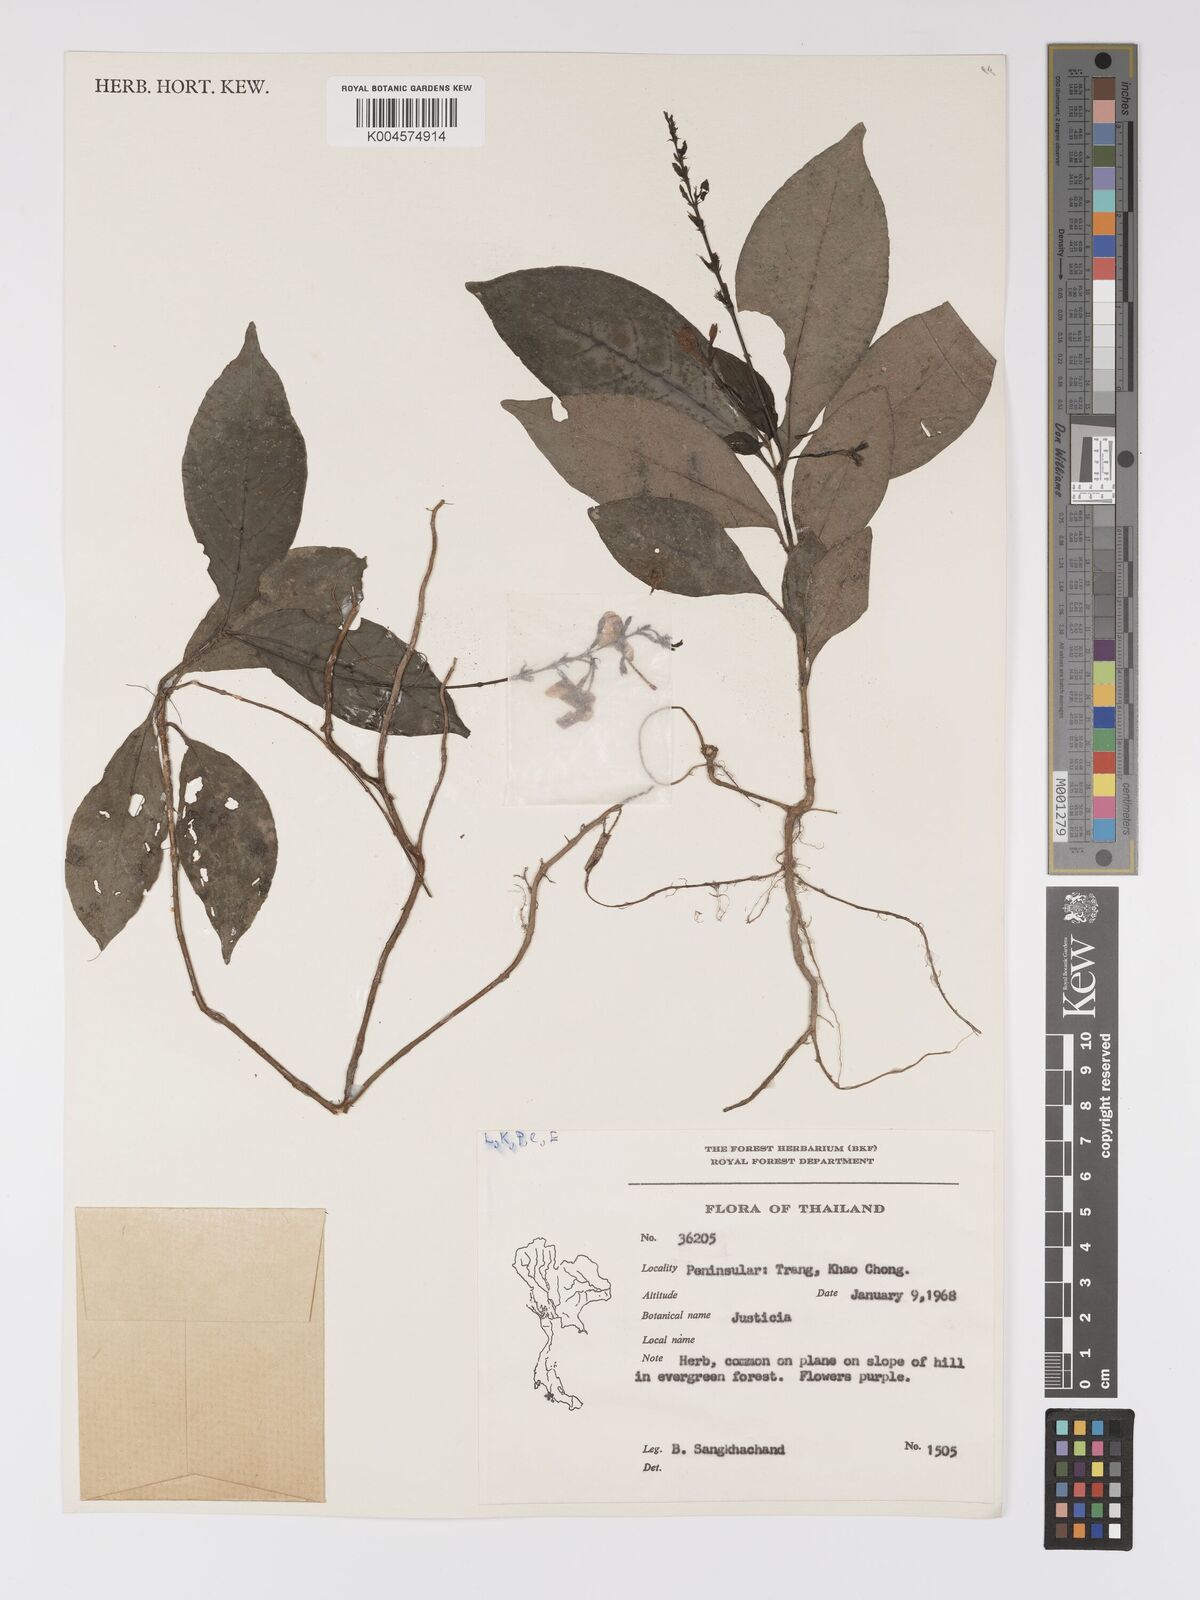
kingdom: Plantae
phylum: Tracheophyta
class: Magnoliopsida
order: Lamiales
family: Acanthaceae
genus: Pseuderanthemum
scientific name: Pseuderanthemum
